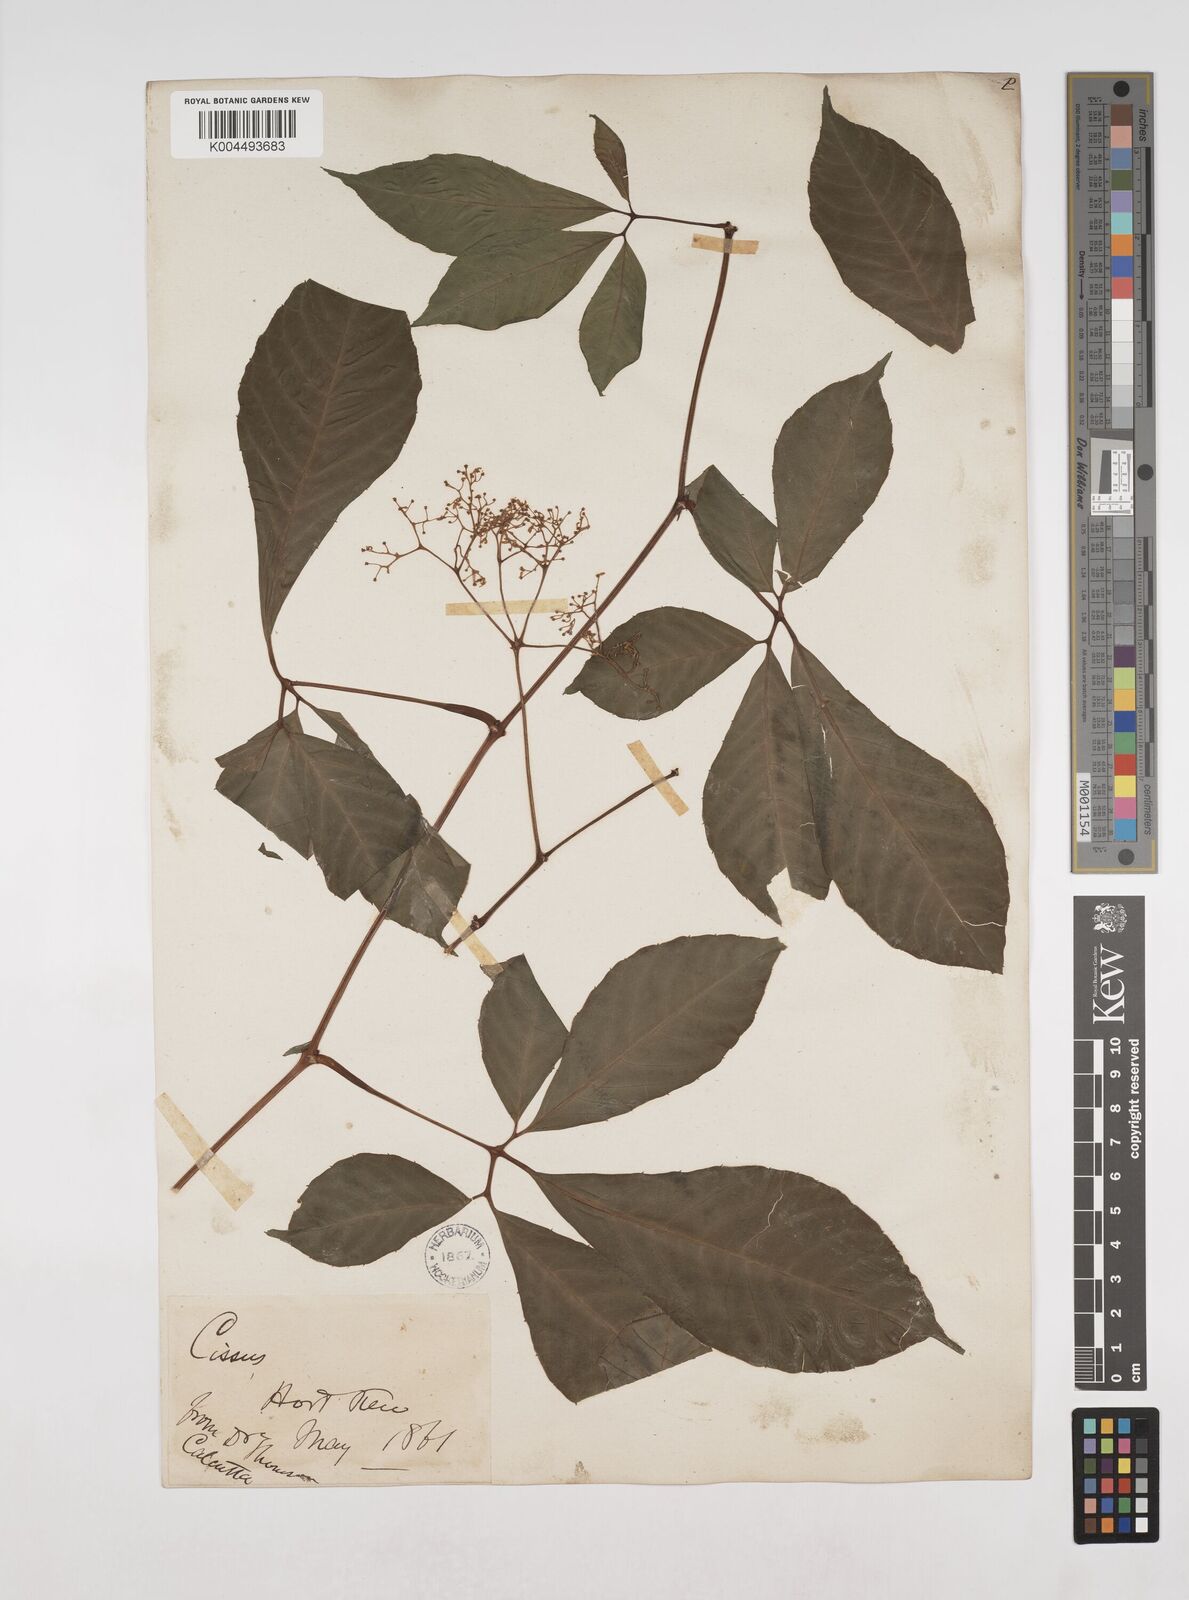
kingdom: Plantae
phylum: Tracheophyta
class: Magnoliopsida
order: Vitales
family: Vitaceae
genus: Tetrastigma
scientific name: Tetrastigma
